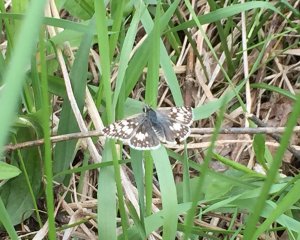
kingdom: Animalia
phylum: Arthropoda
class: Insecta
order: Lepidoptera
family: Hesperiidae
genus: Pyrgus
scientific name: Pyrgus communis
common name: Common Checkered-Skipper
